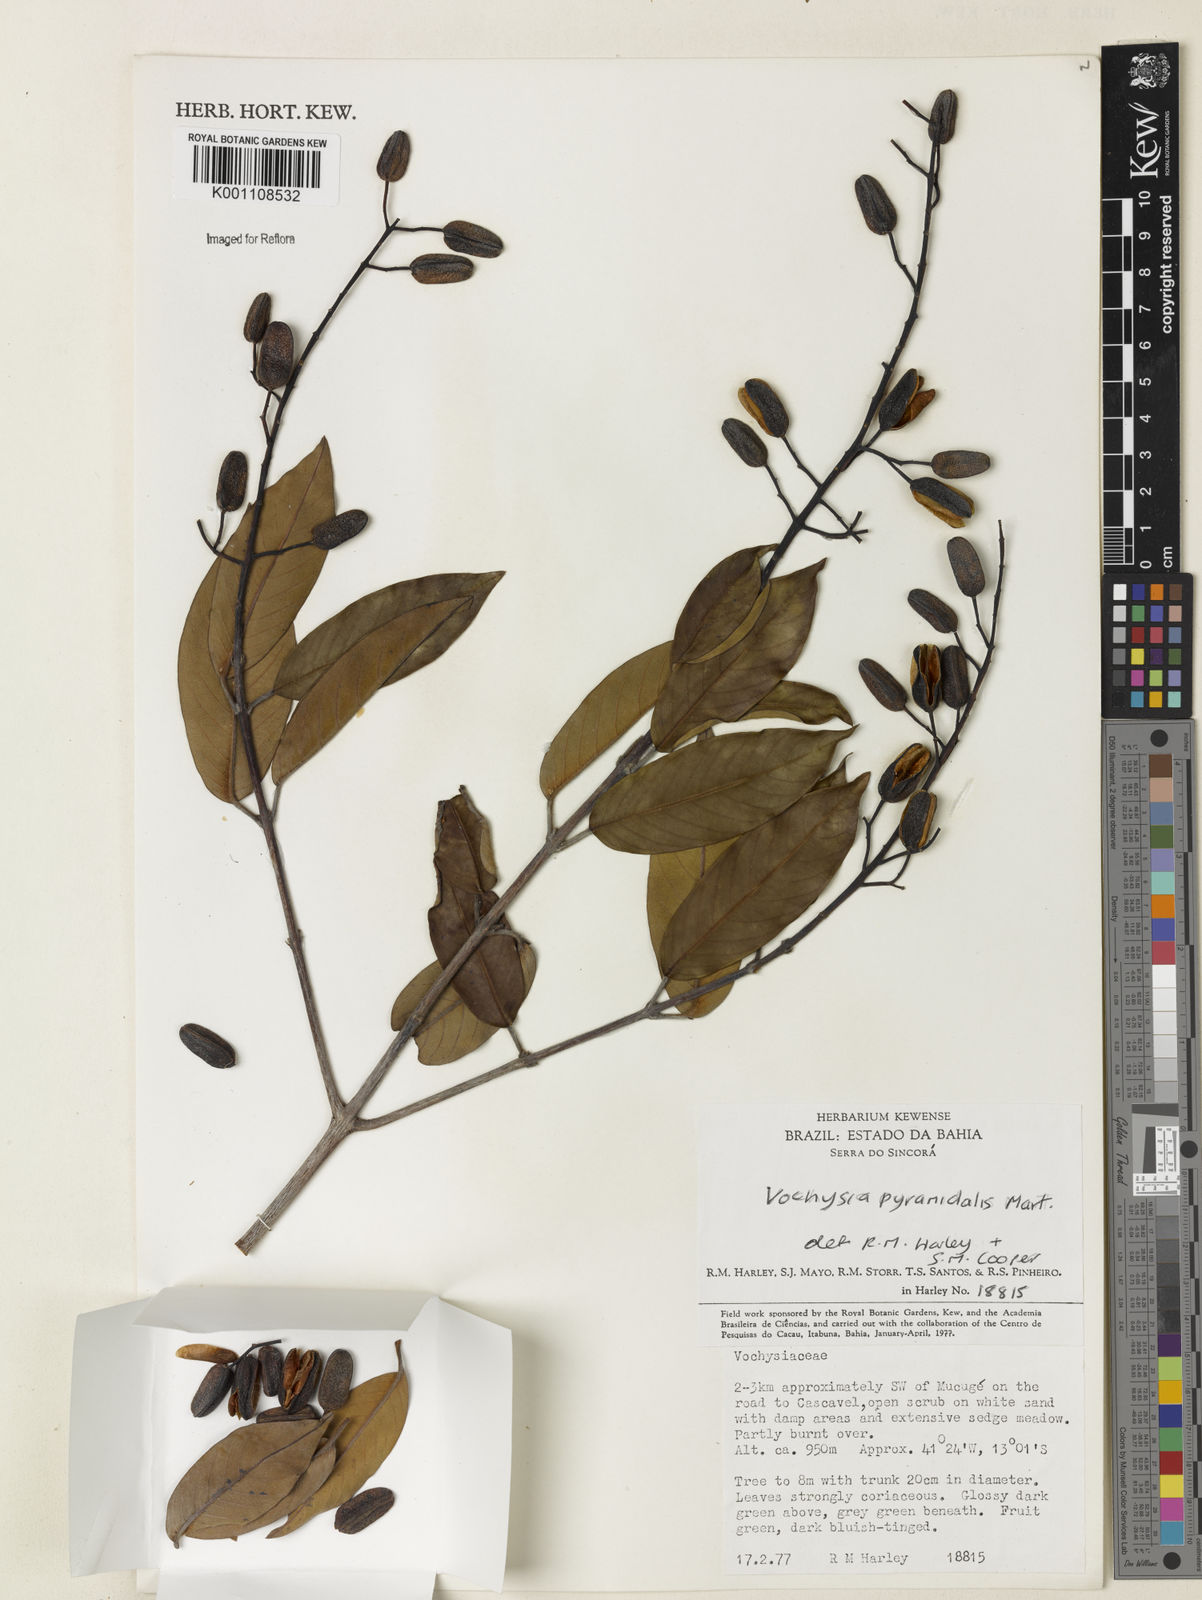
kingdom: Plantae
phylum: Tracheophyta
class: Magnoliopsida
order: Myrtales
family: Vochysiaceae
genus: Vochysia
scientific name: Vochysia pyramidalis
